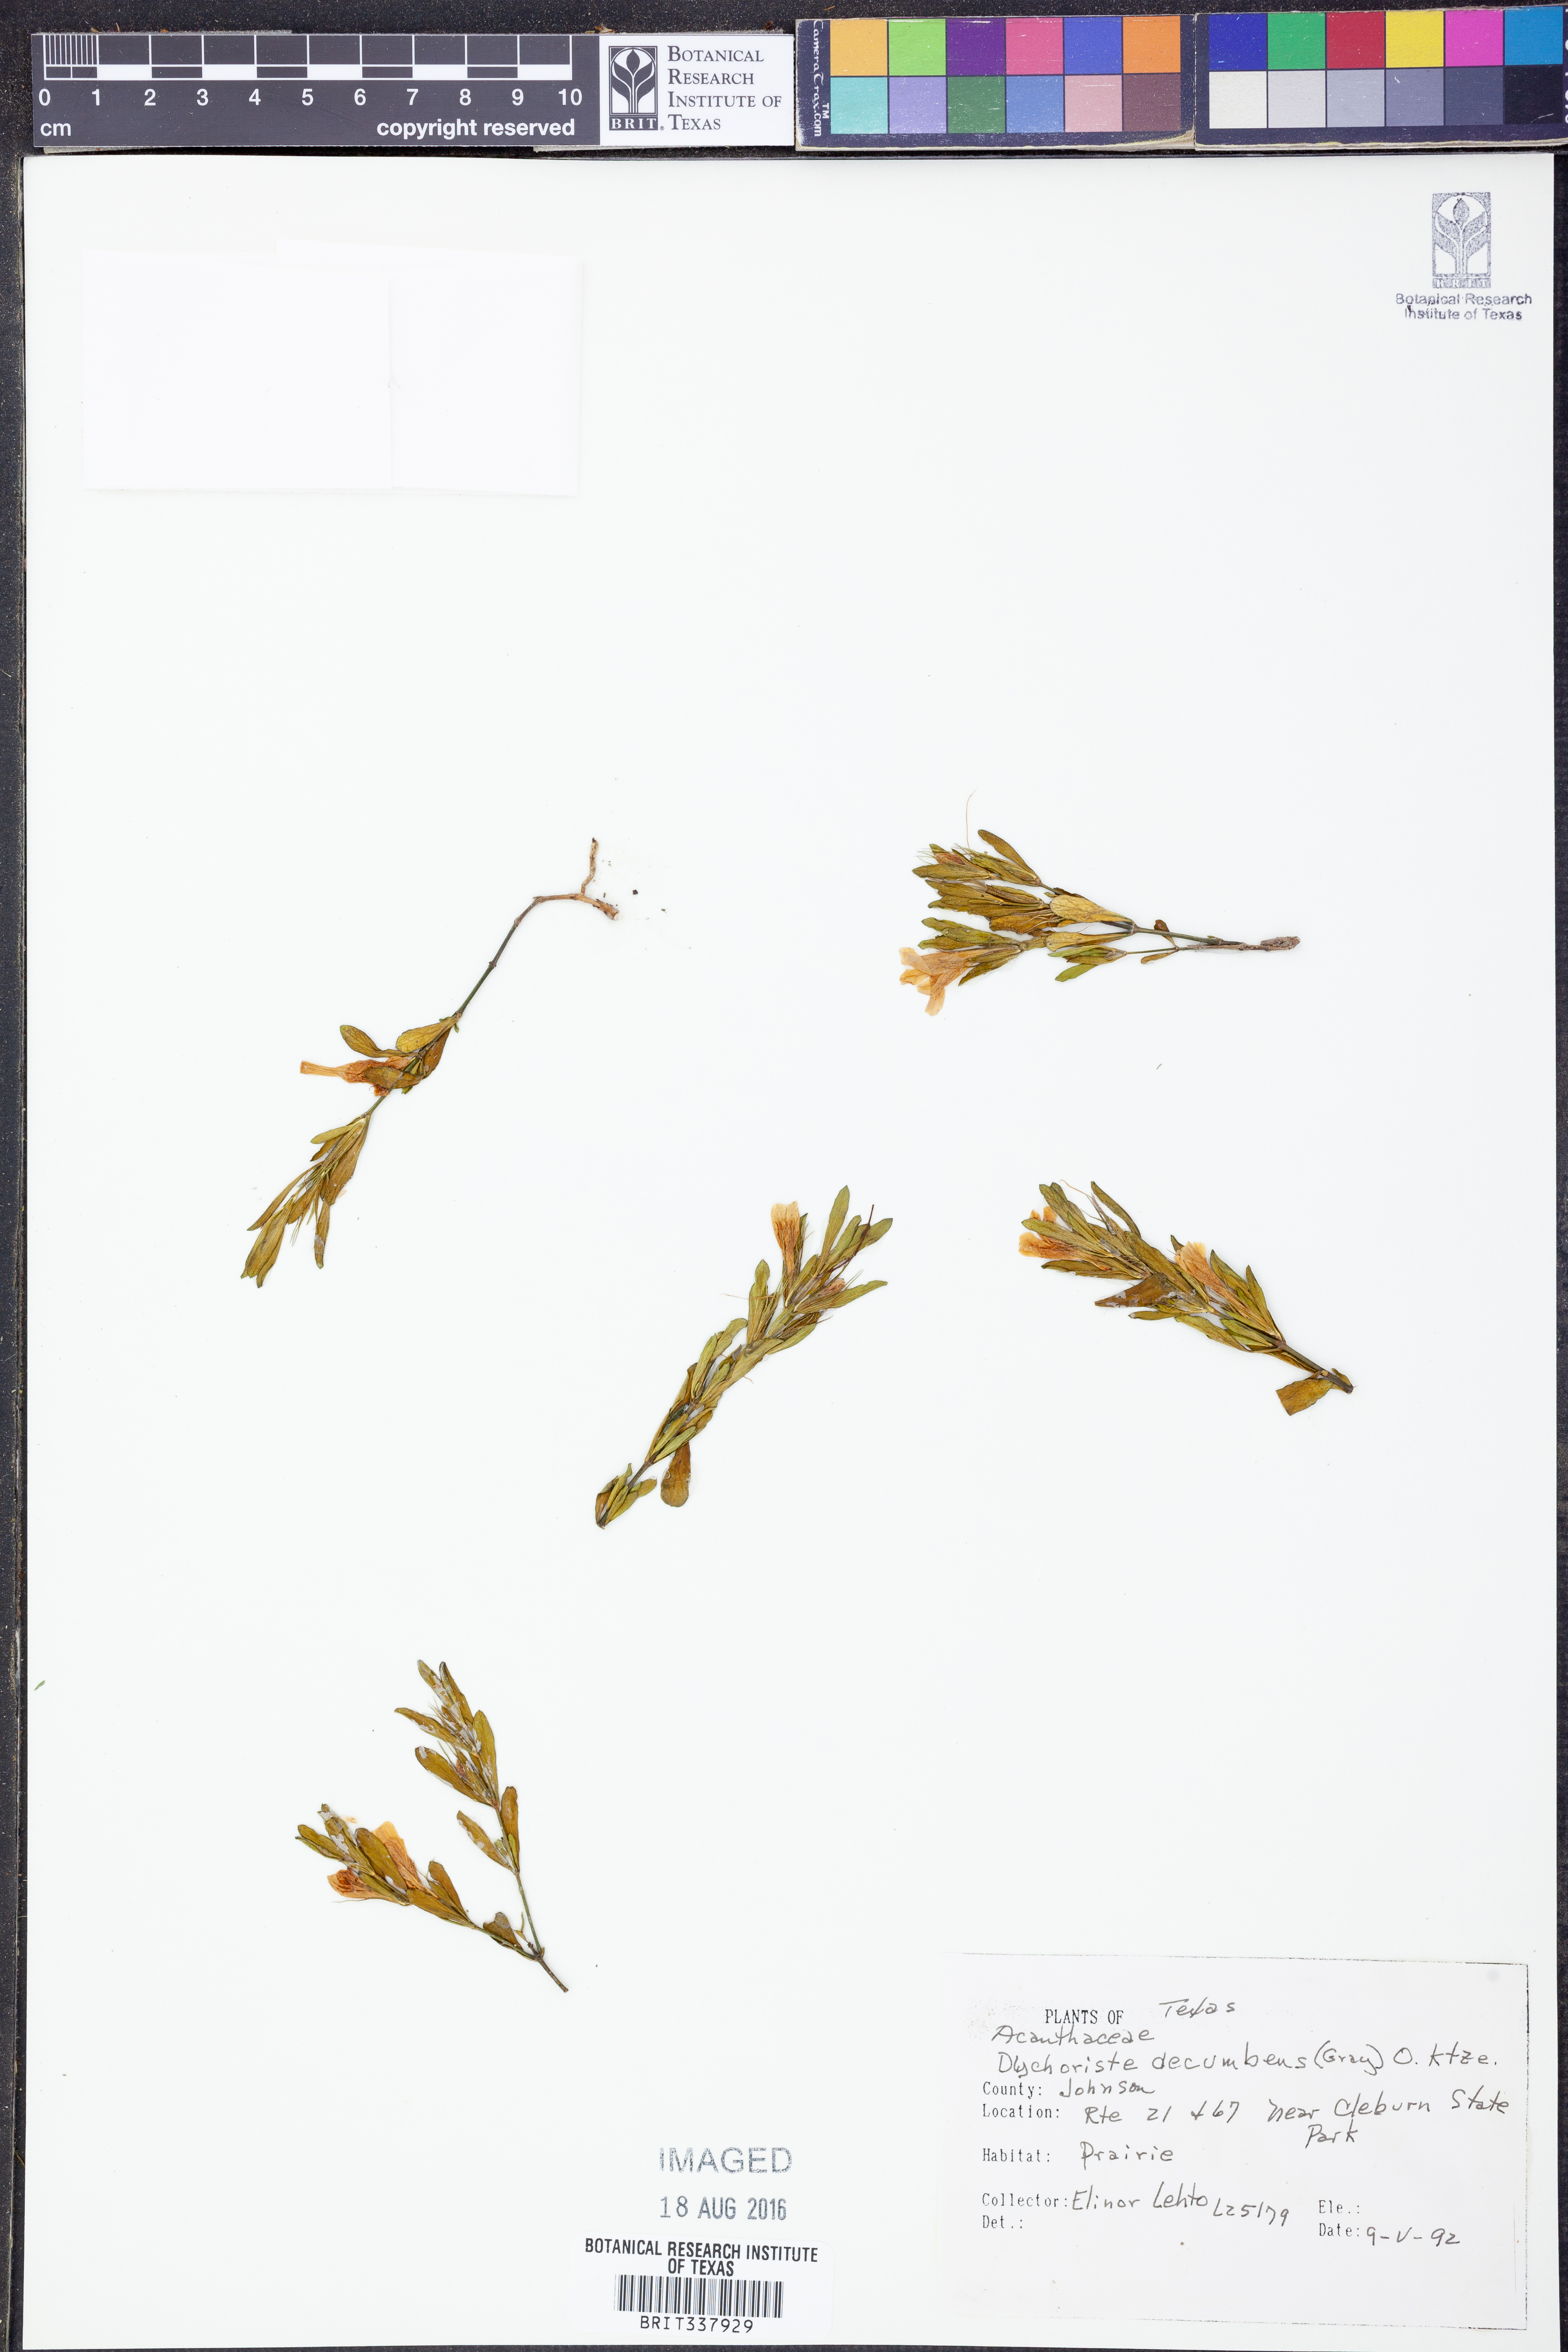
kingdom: Plantae
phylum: Tracheophyta
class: Magnoliopsida
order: Lamiales
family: Acanthaceae
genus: Dyschoriste
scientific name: Dyschoriste decumbens
